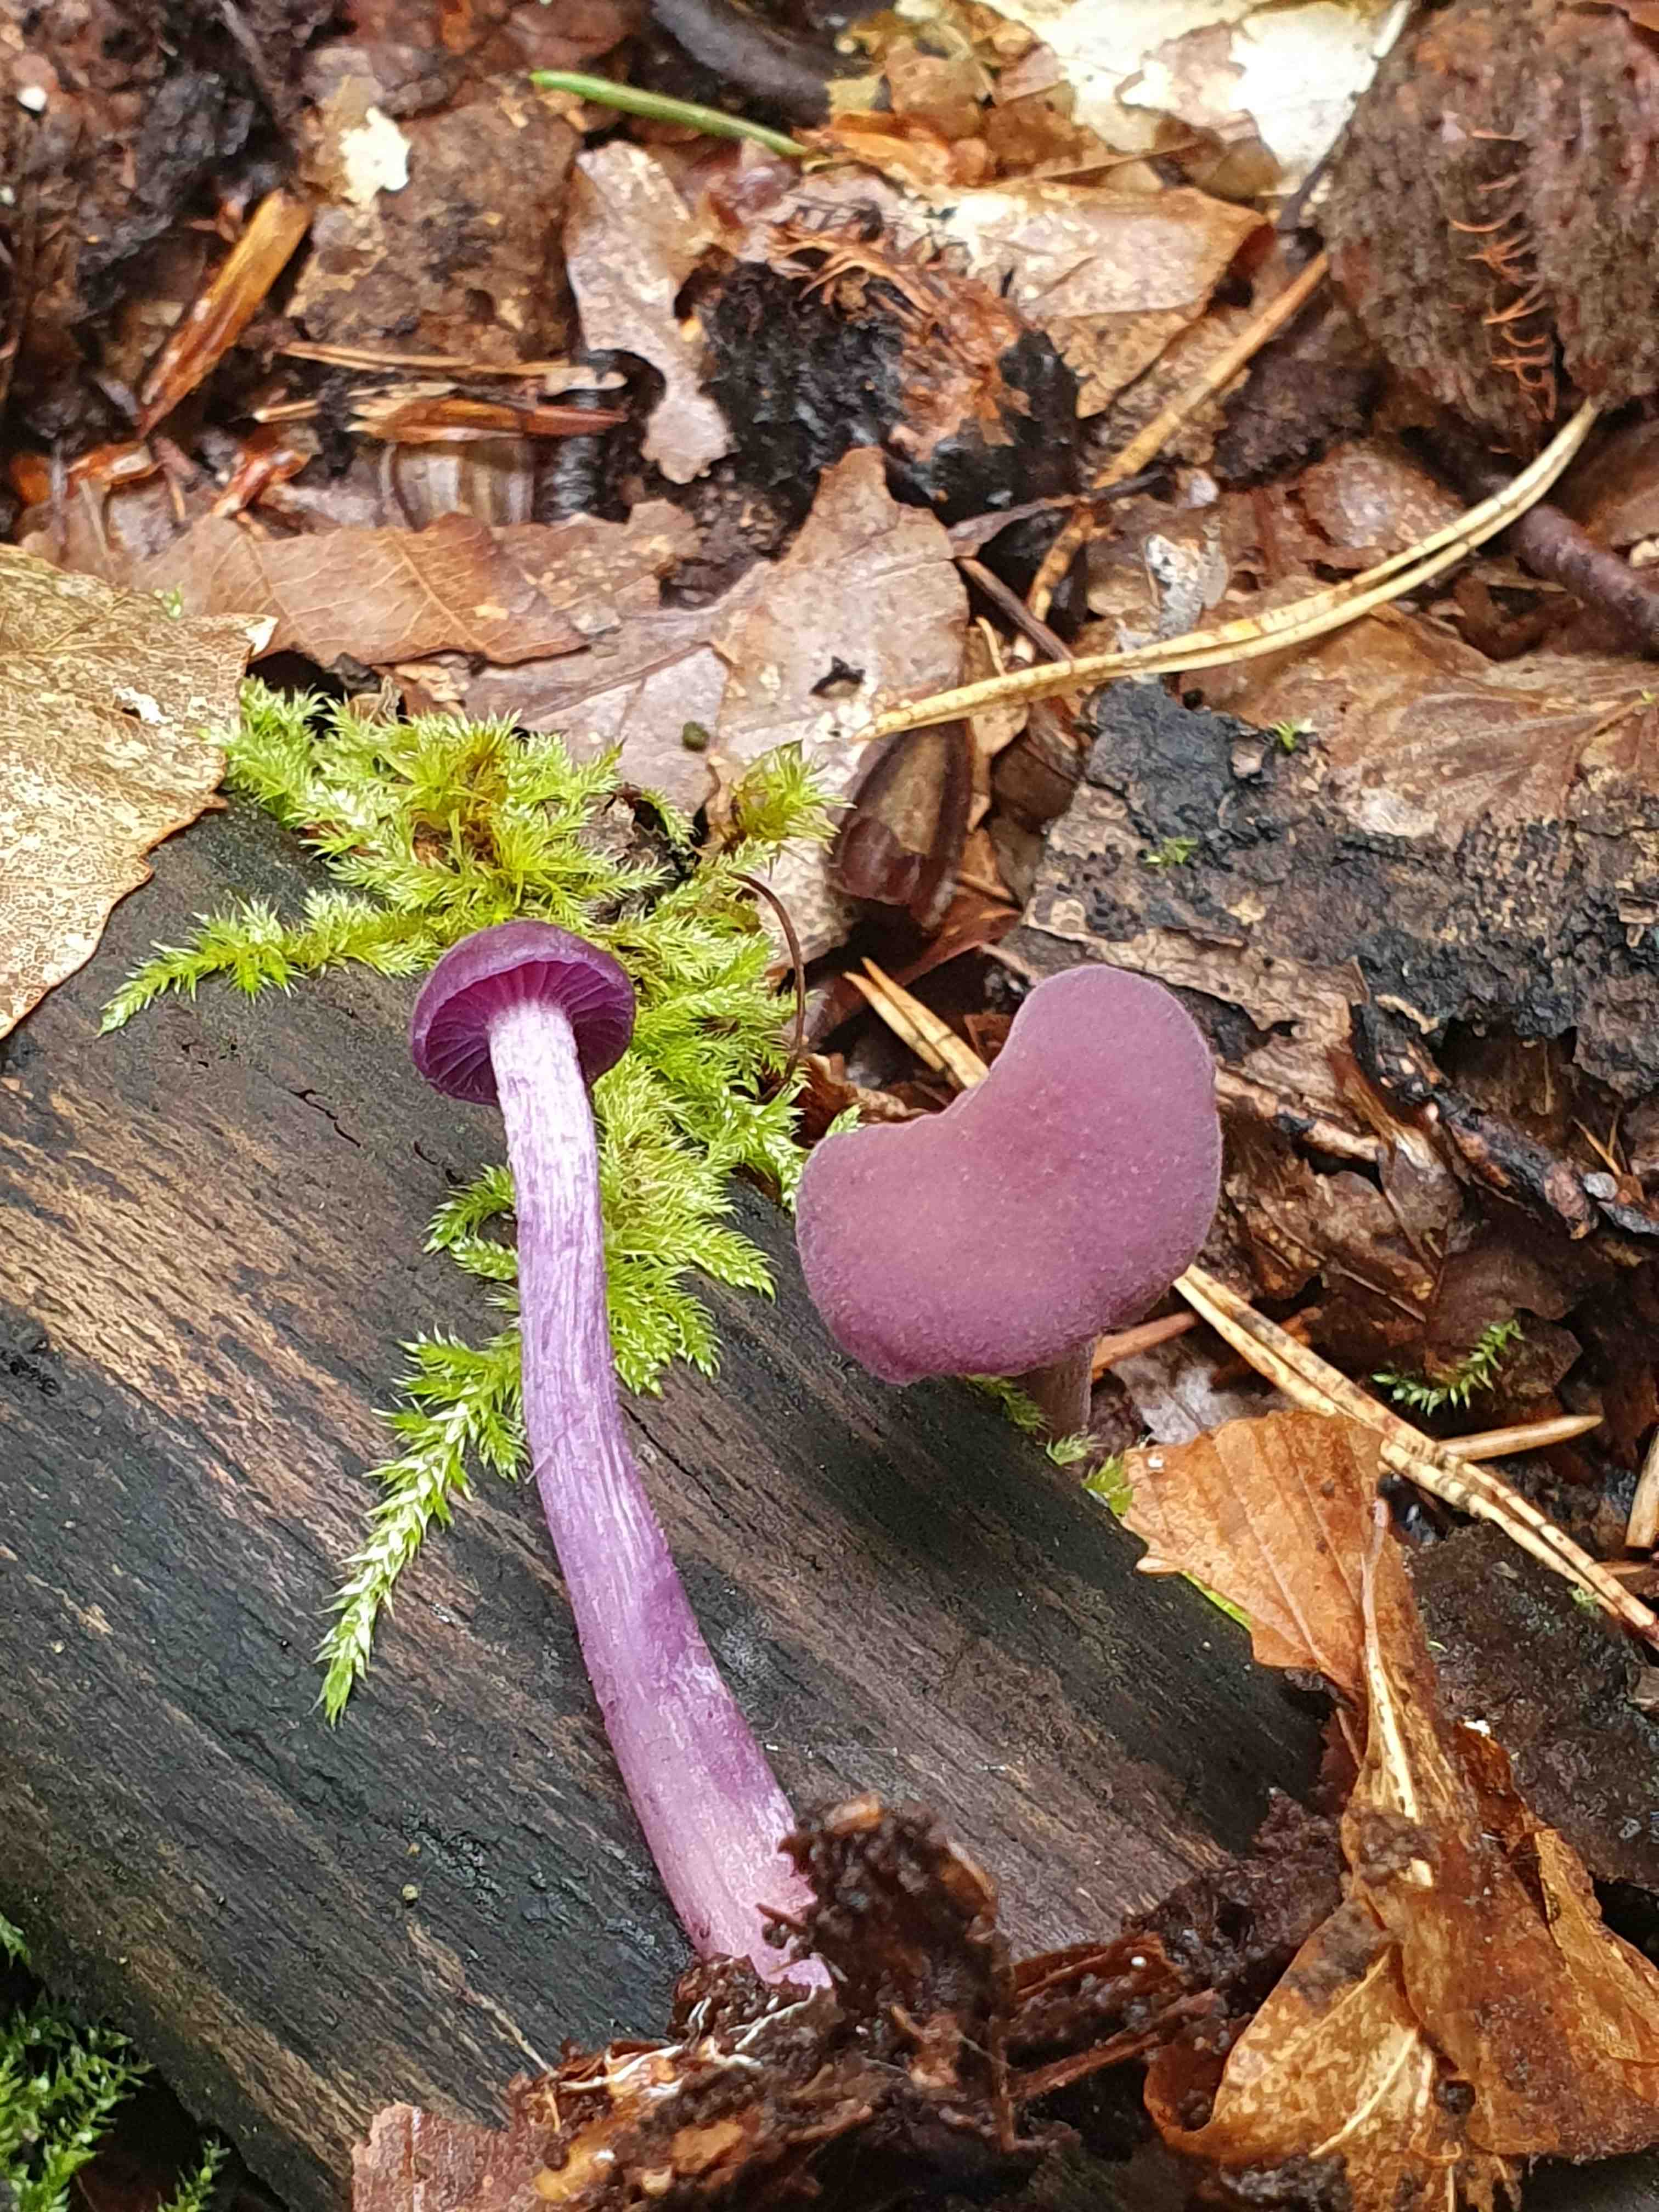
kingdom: Fungi
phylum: Basidiomycota
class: Agaricomycetes
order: Agaricales
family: Hydnangiaceae
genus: Laccaria
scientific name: Laccaria amethystina
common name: violet ametysthat
